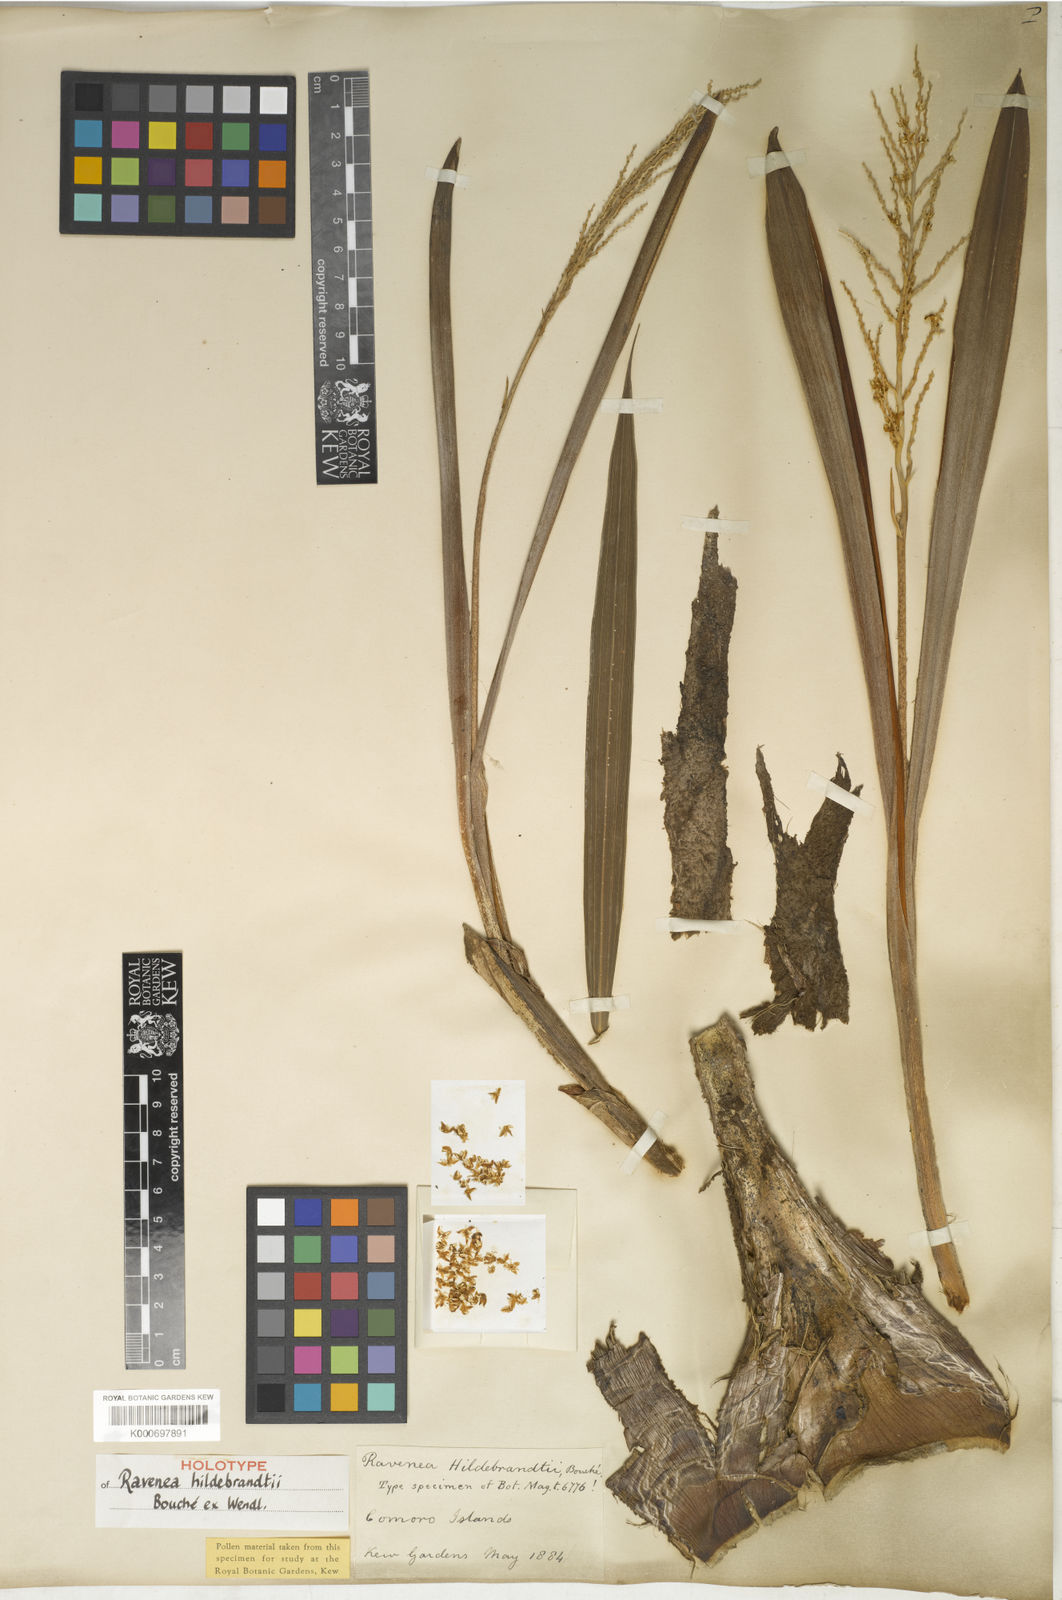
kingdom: Plantae
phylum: Tracheophyta
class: Liliopsida
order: Arecales
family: Arecaceae
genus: Ravenea
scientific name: Ravenea hildebrandtii
